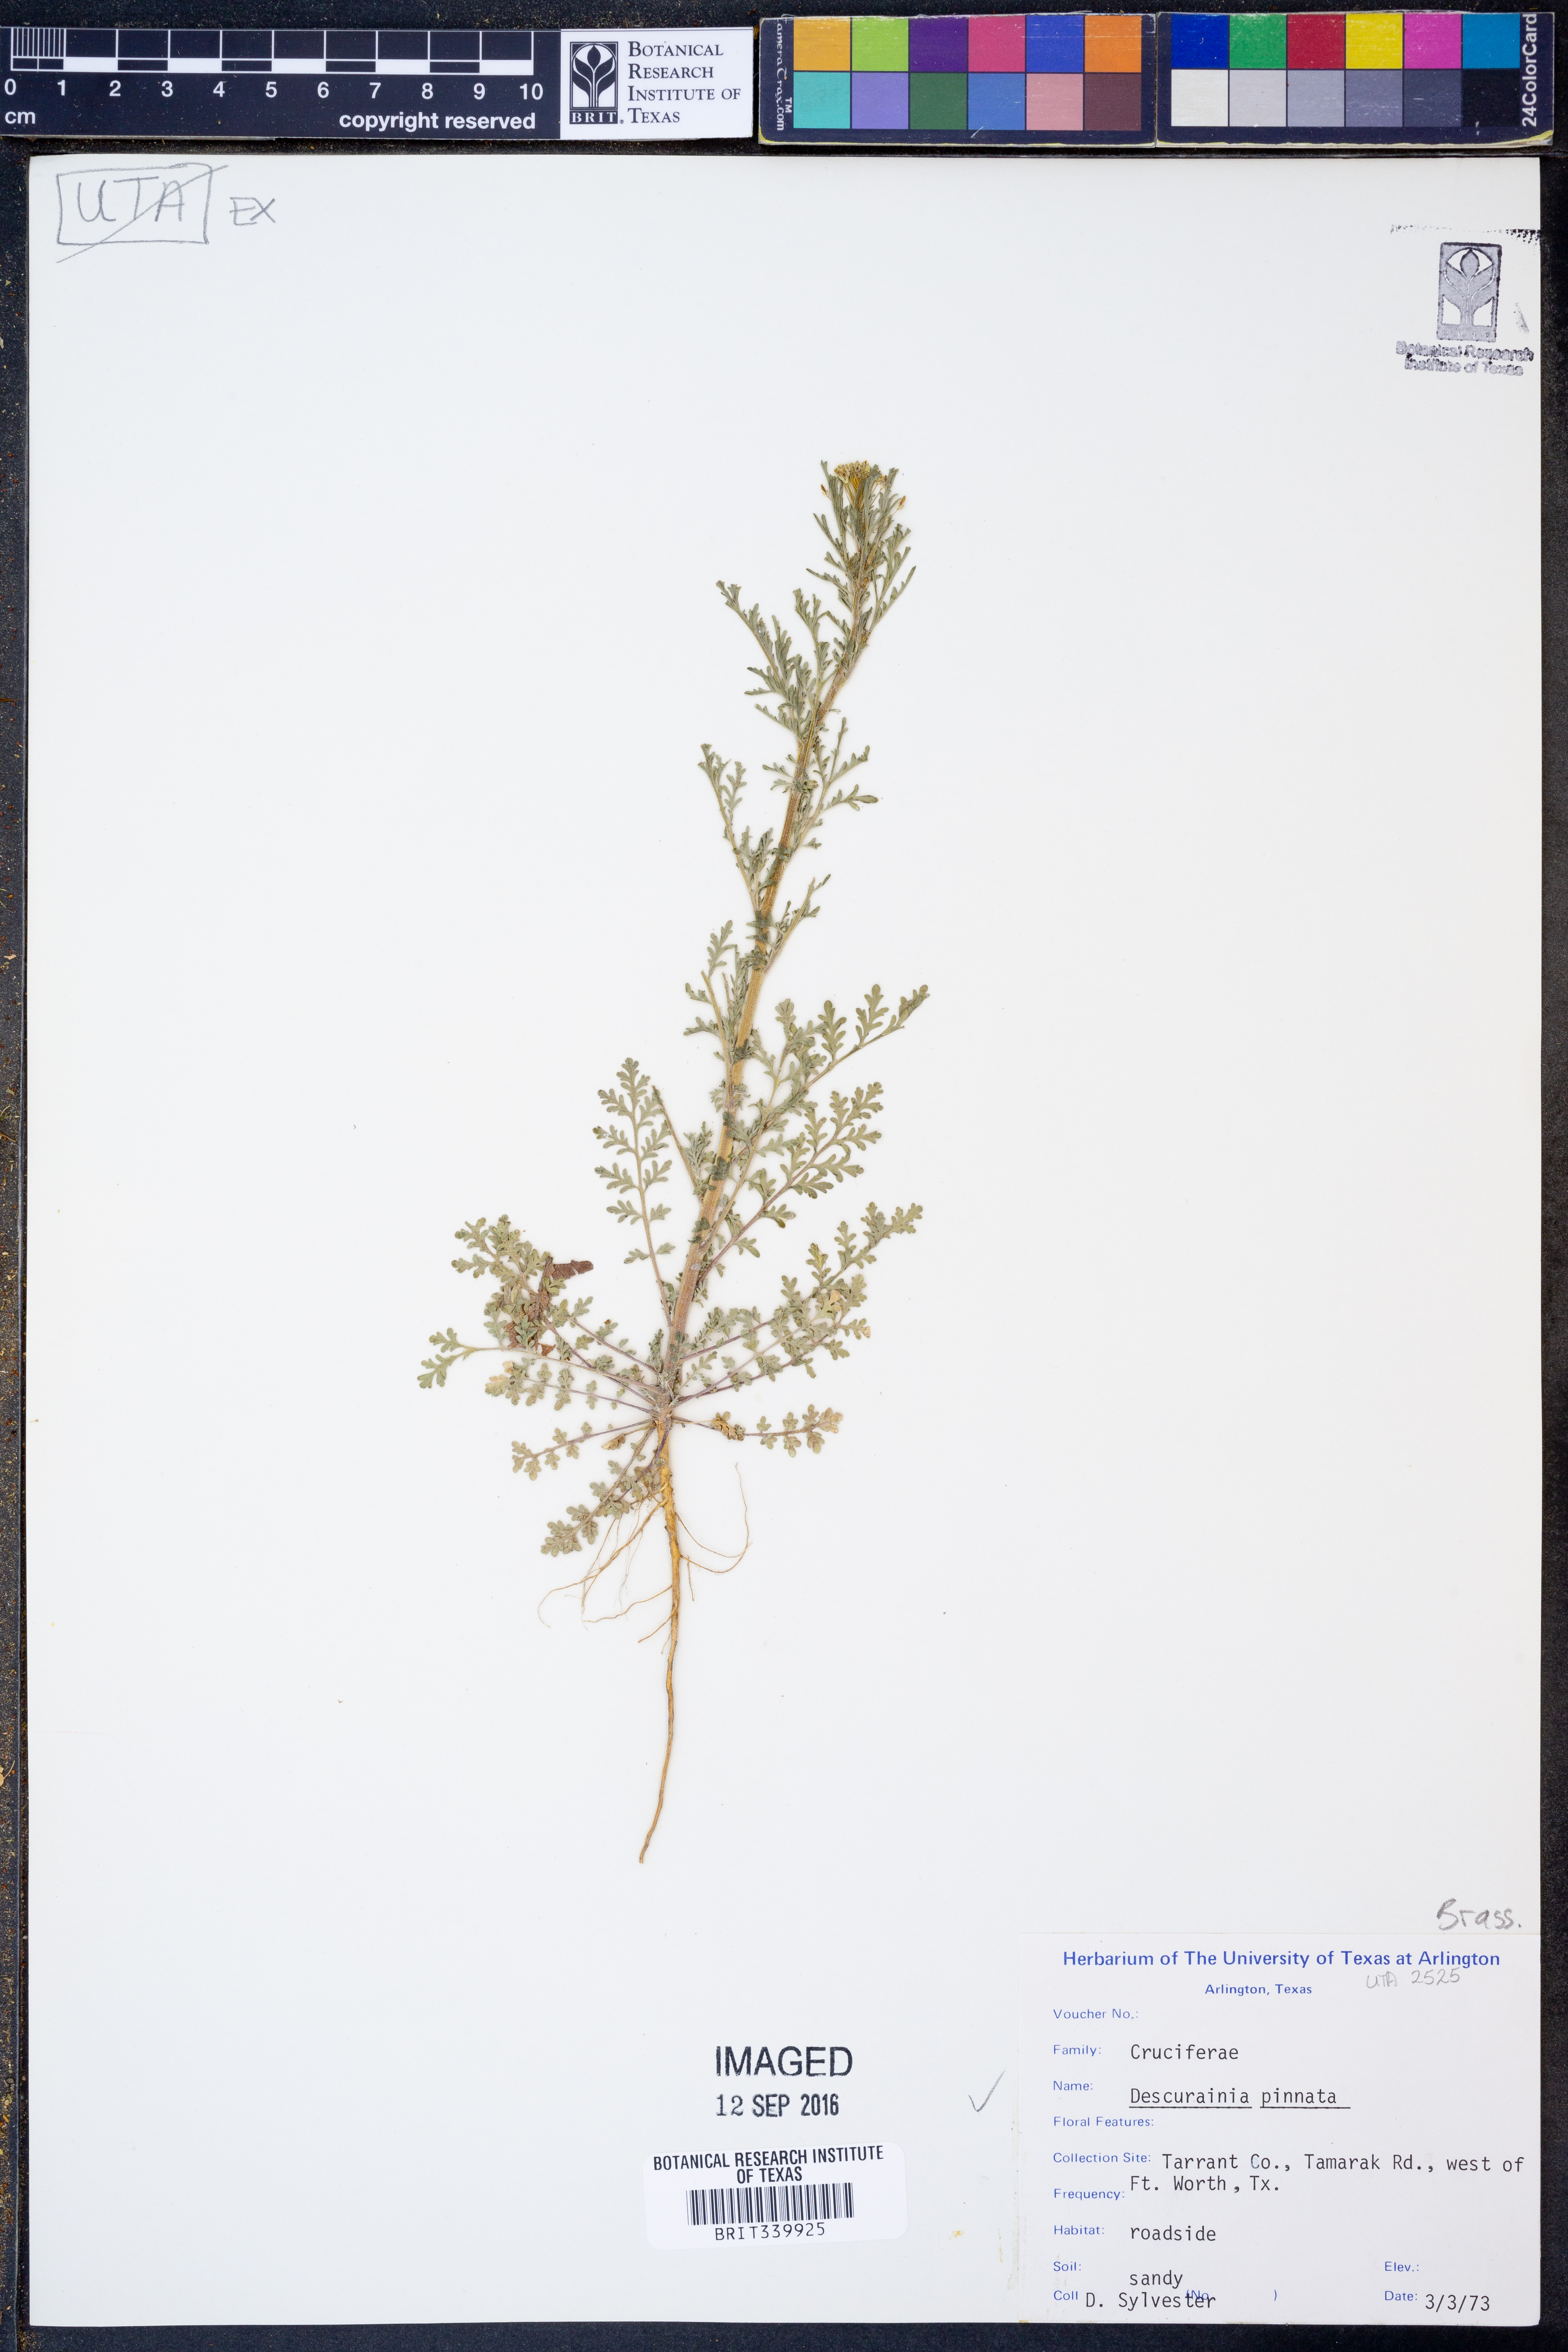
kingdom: Plantae
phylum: Tracheophyta
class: Magnoliopsida
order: Brassicales
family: Brassicaceae
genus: Descurainia
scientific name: Descurainia pinnata
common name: Western tansy mustard
